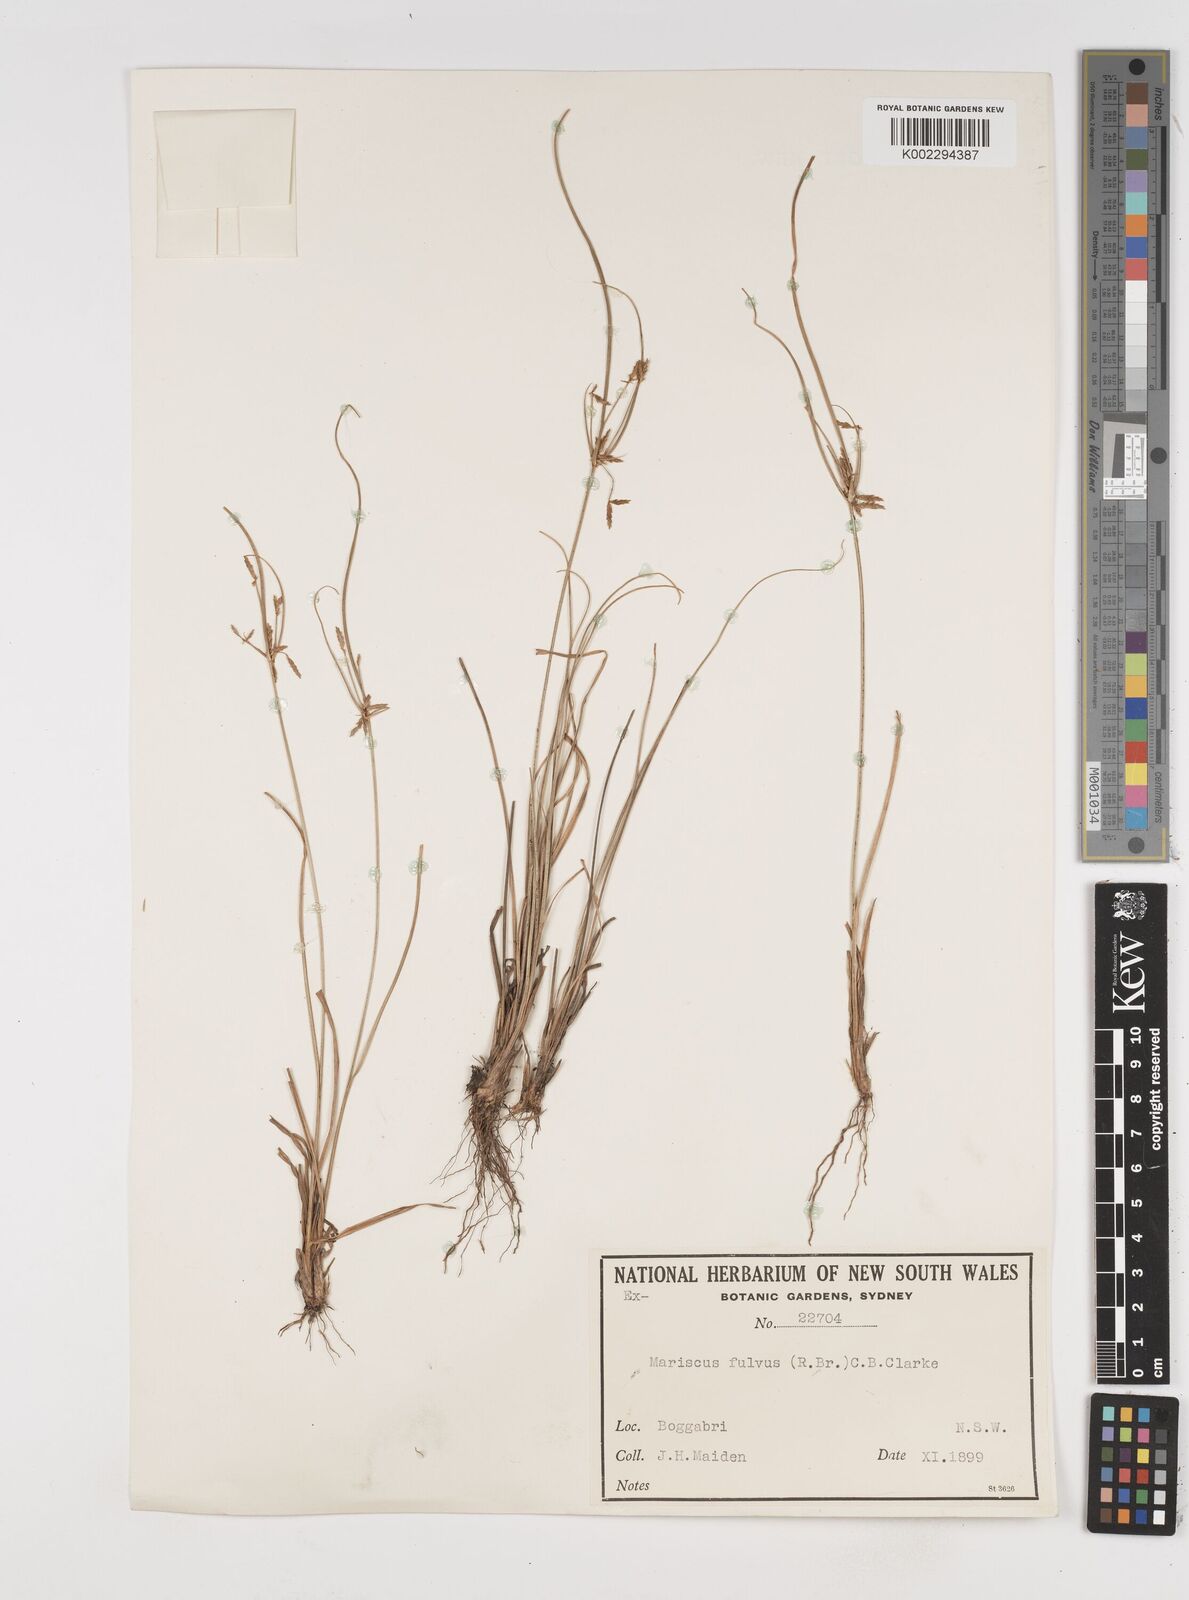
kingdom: Plantae
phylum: Tracheophyta
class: Liliopsida
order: Poales
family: Cyperaceae
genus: Cyperus
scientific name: Cyperus fulvus
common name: Sticky sedge
